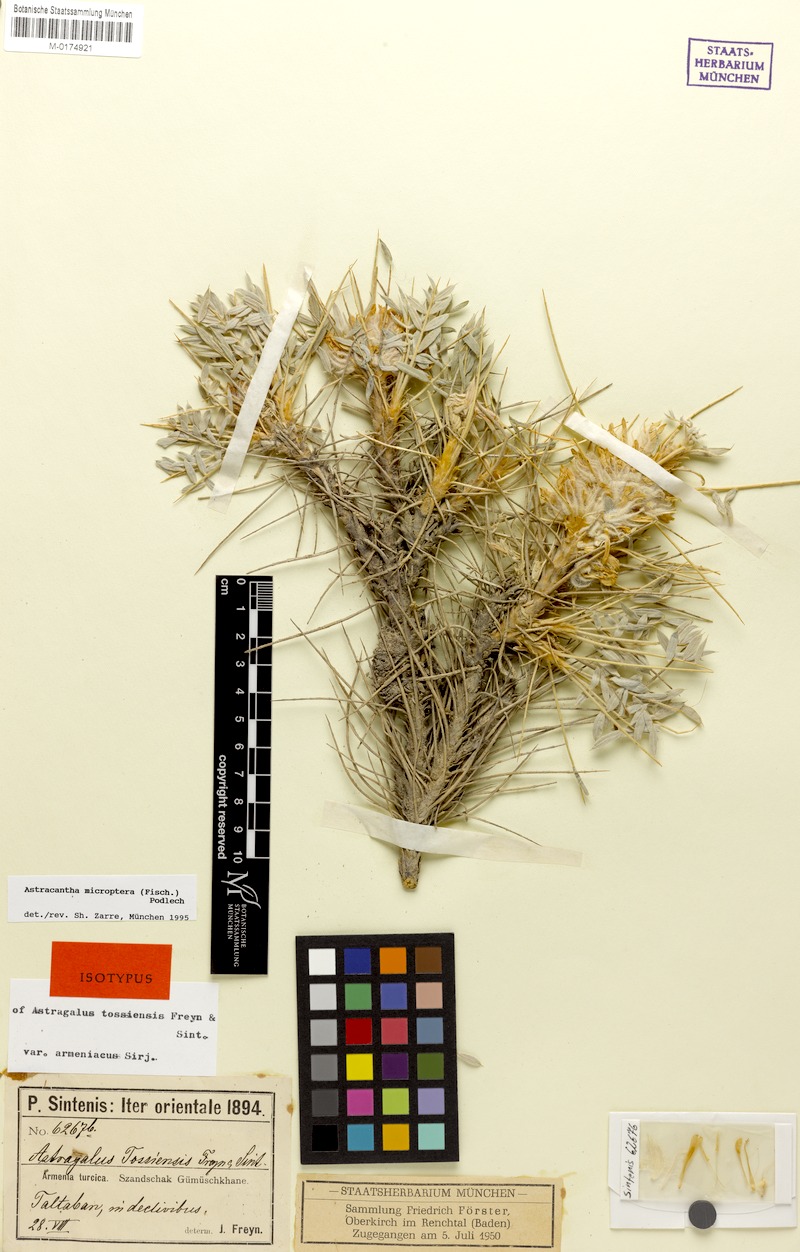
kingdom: Plantae
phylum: Tracheophyta
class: Magnoliopsida
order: Fabales
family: Fabaceae
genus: Astragalus
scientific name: Astragalus micropterus
